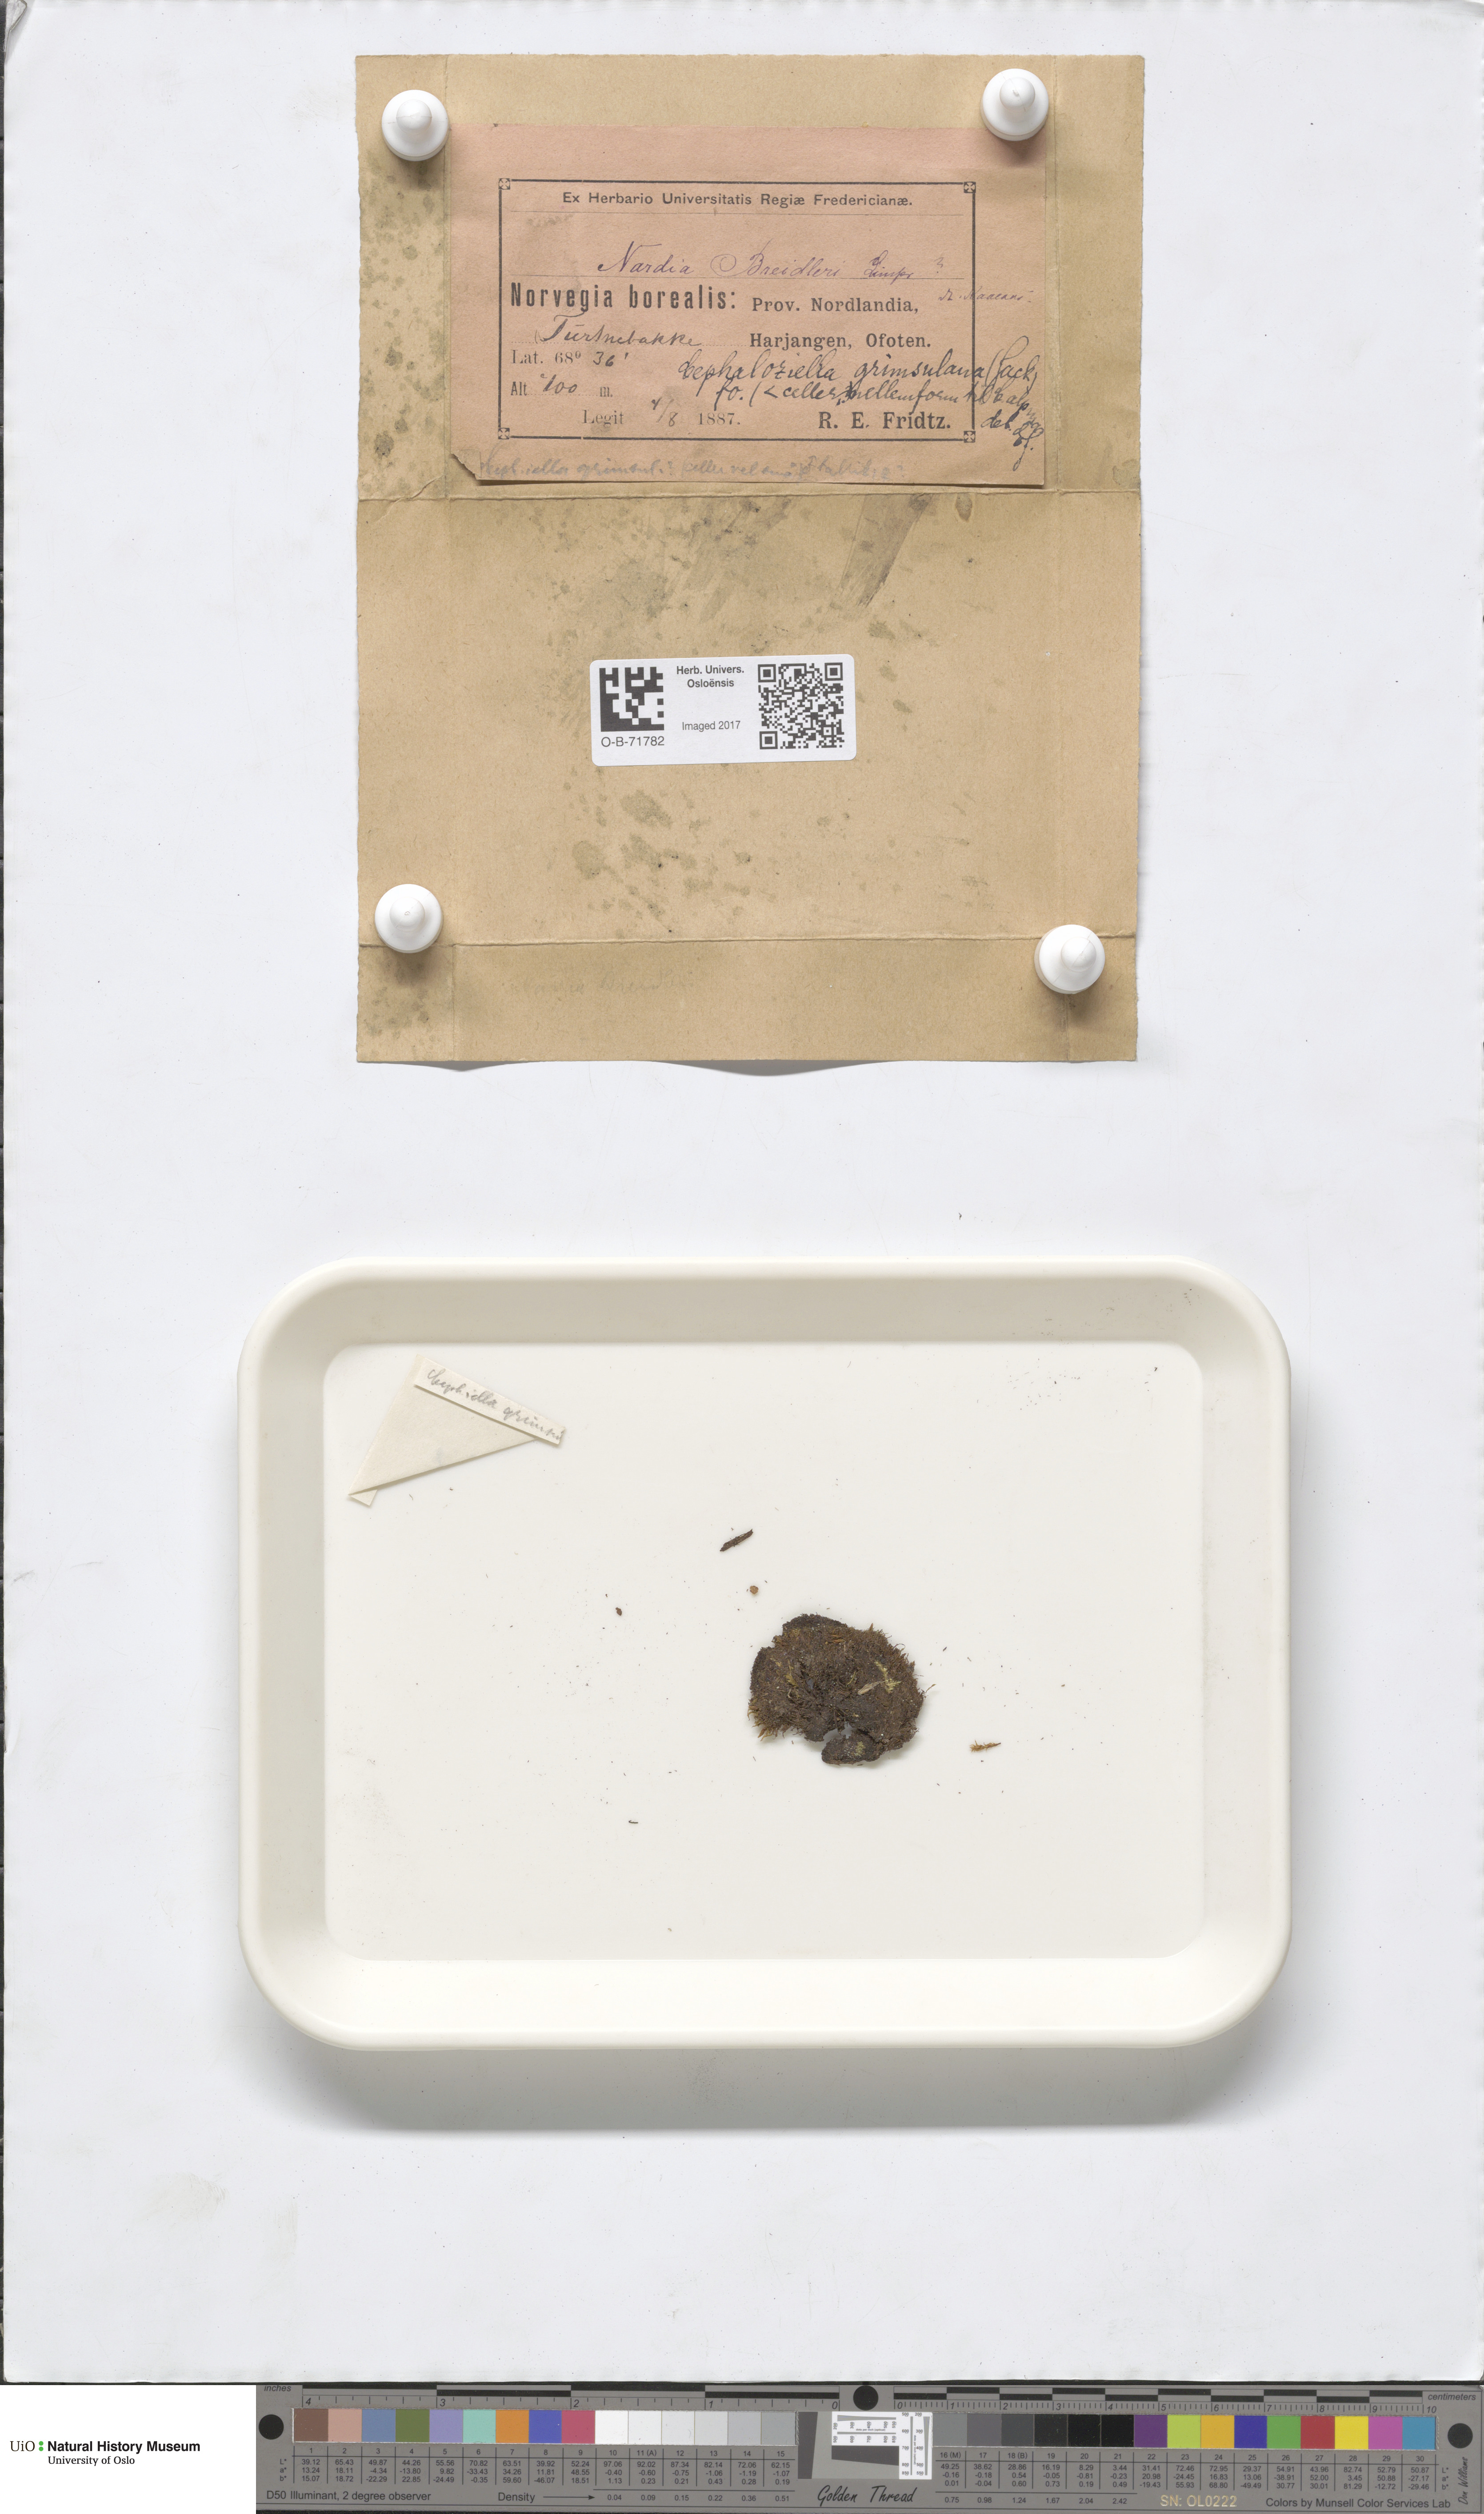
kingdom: Plantae
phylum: Marchantiophyta
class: Jungermanniopsida
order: Jungermanniales
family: Cephaloziellaceae
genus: Cephaloziella
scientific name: Cephaloziella varians
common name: Arctic threadwort
